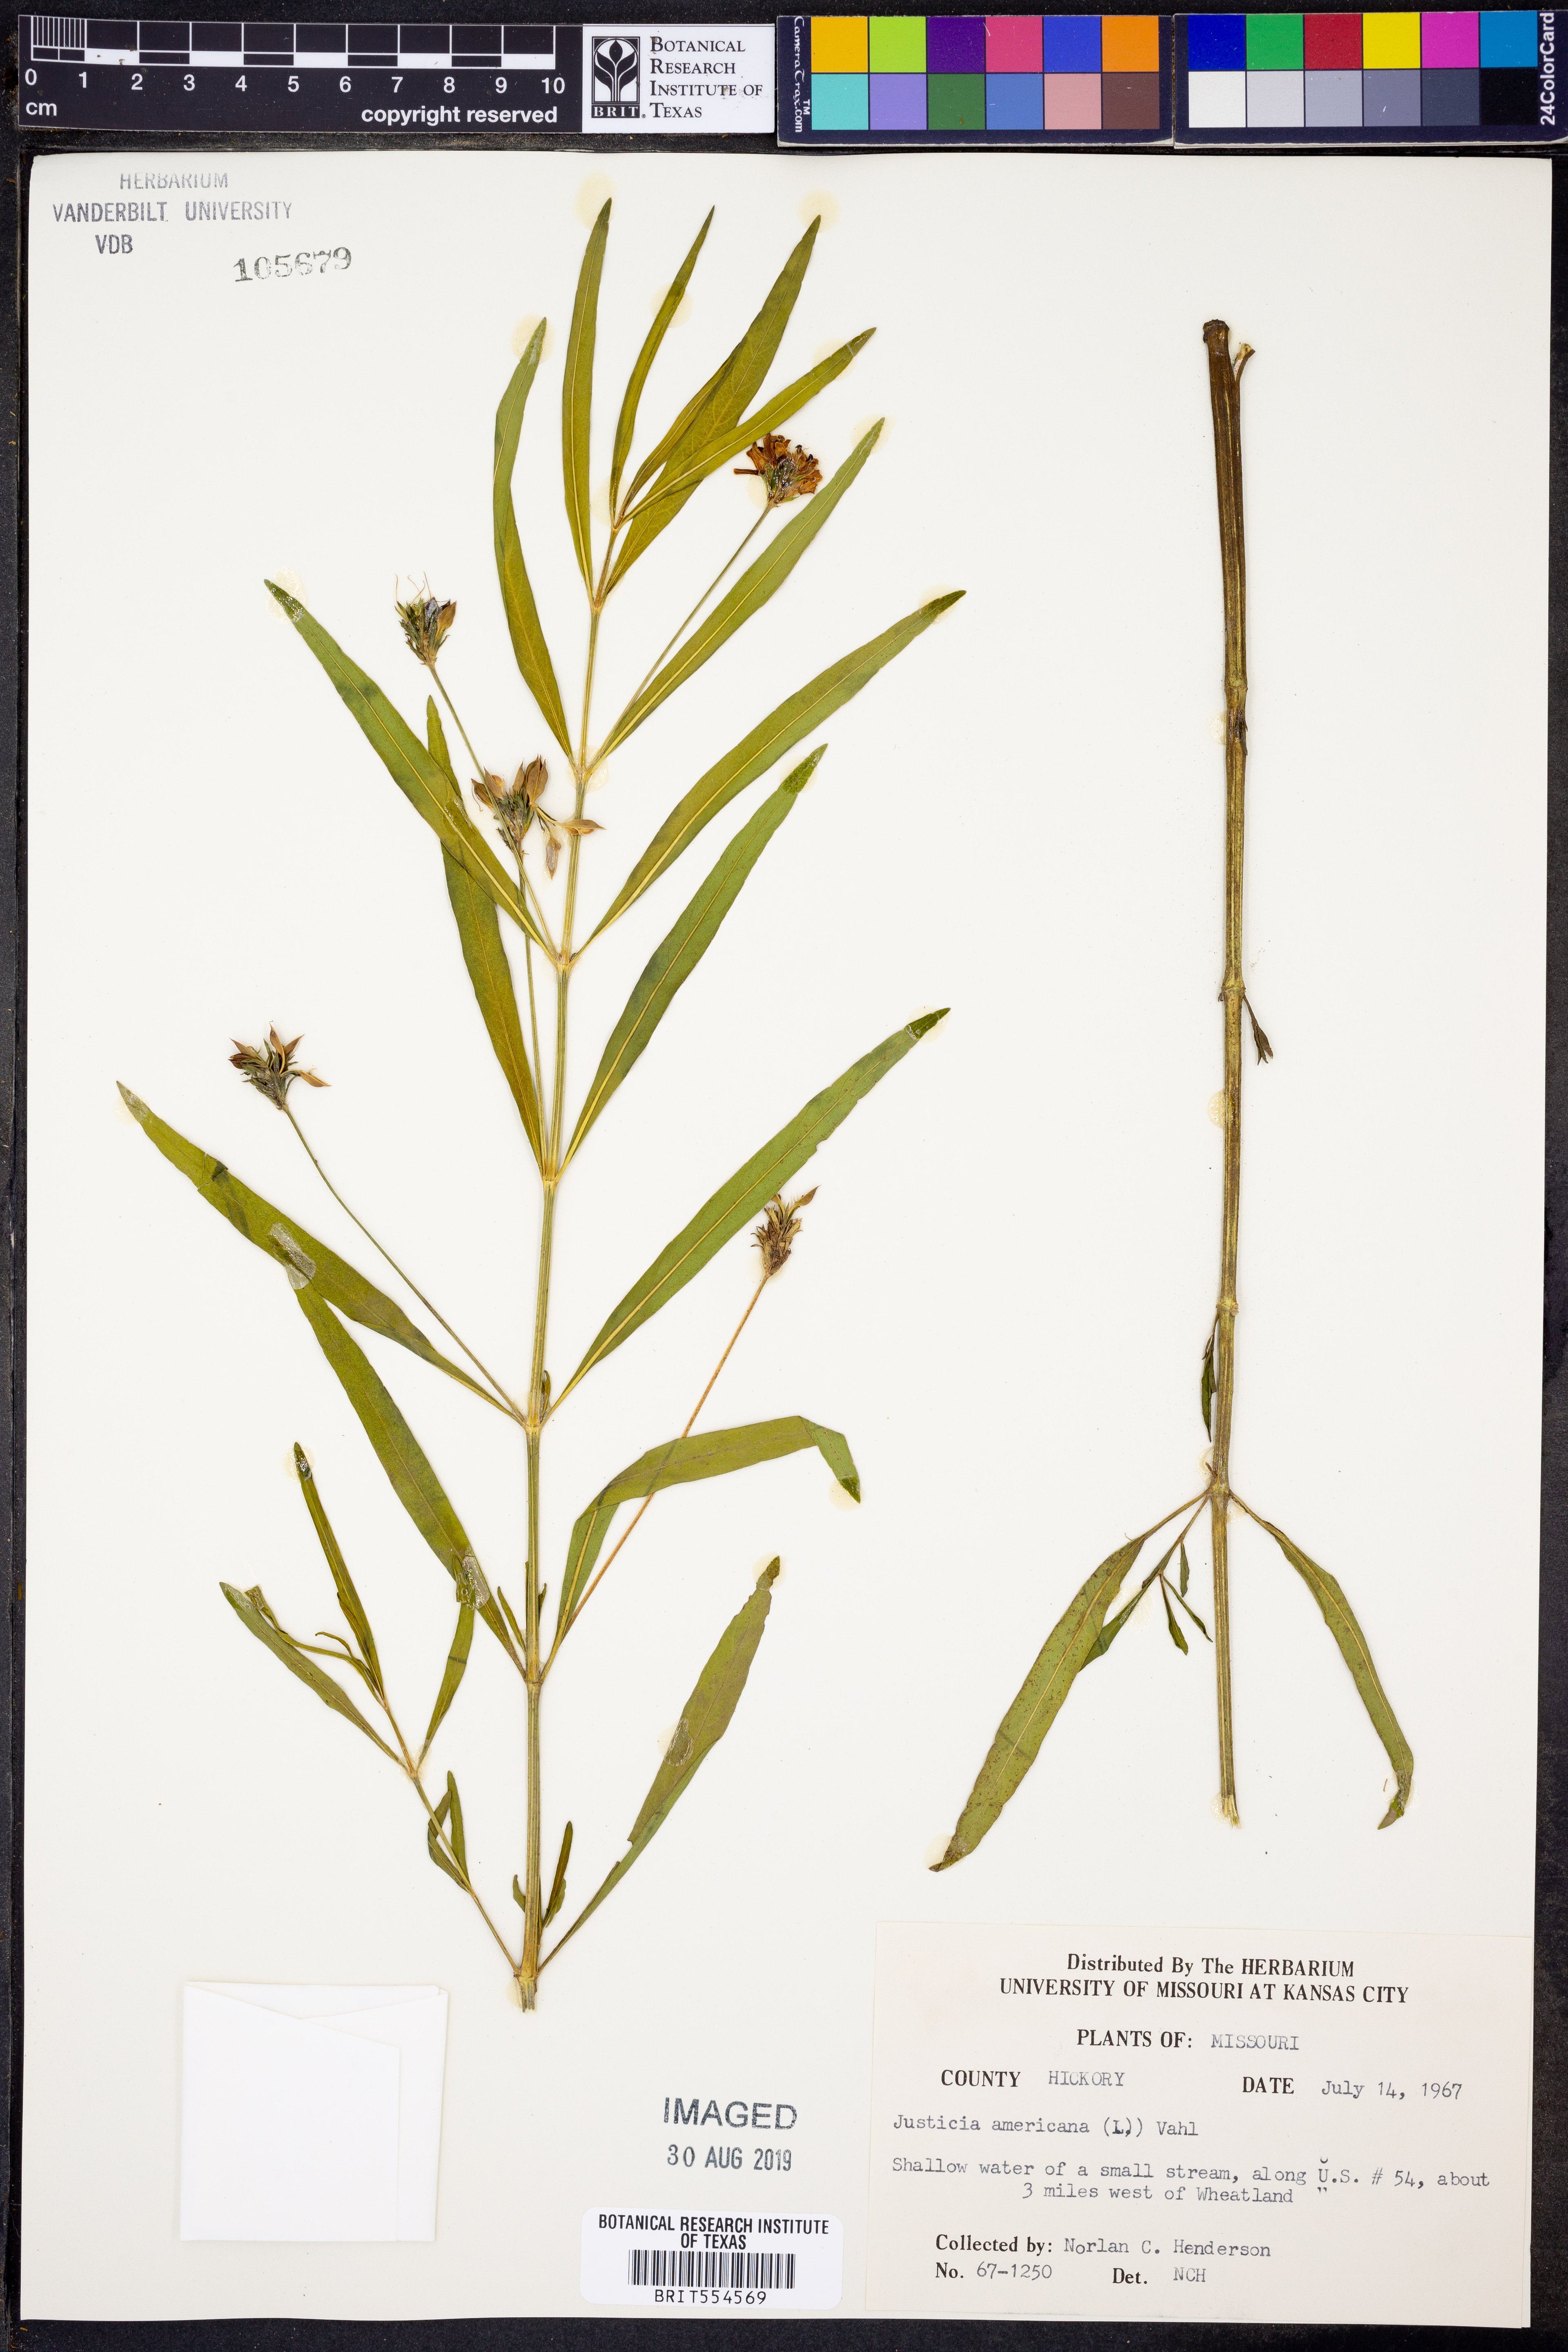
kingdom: Plantae
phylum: Tracheophyta
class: Magnoliopsida
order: Lamiales
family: Acanthaceae
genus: Dianthera
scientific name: Dianthera americana
